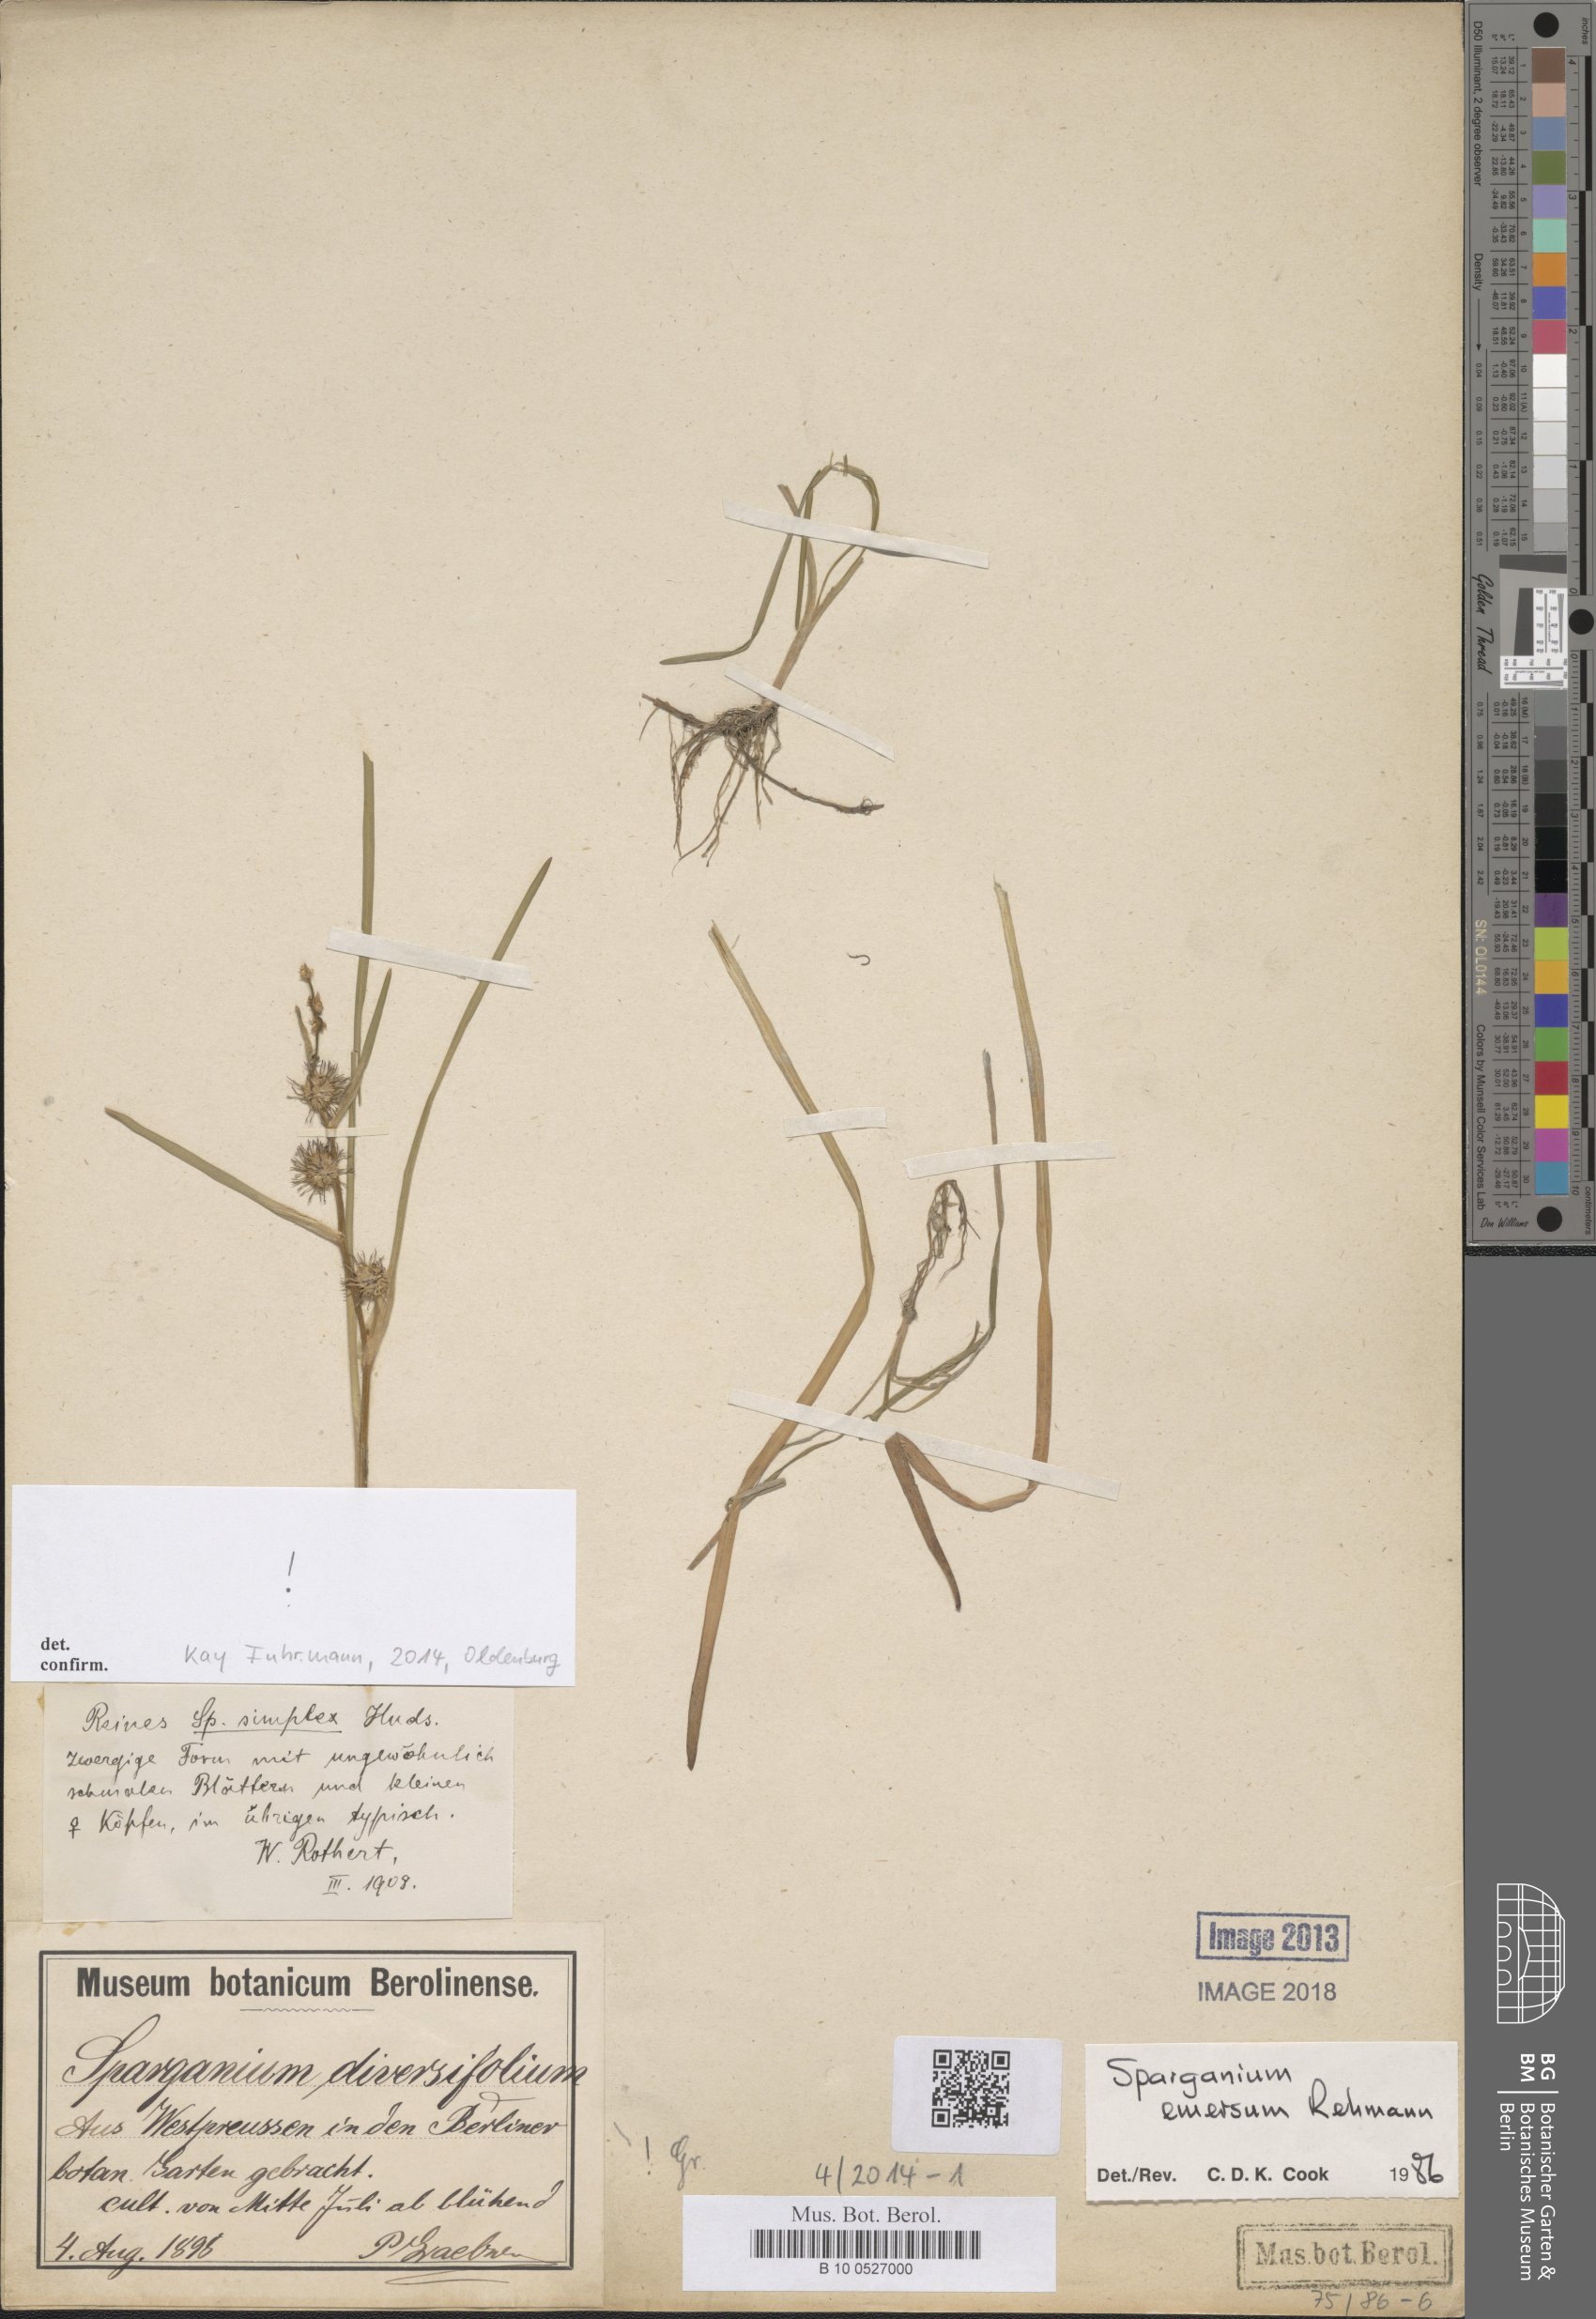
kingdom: Plantae
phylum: Tracheophyta
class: Liliopsida
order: Poales
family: Typhaceae
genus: Sparganium
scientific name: Sparganium emersum
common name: Unbranched bur-reed
